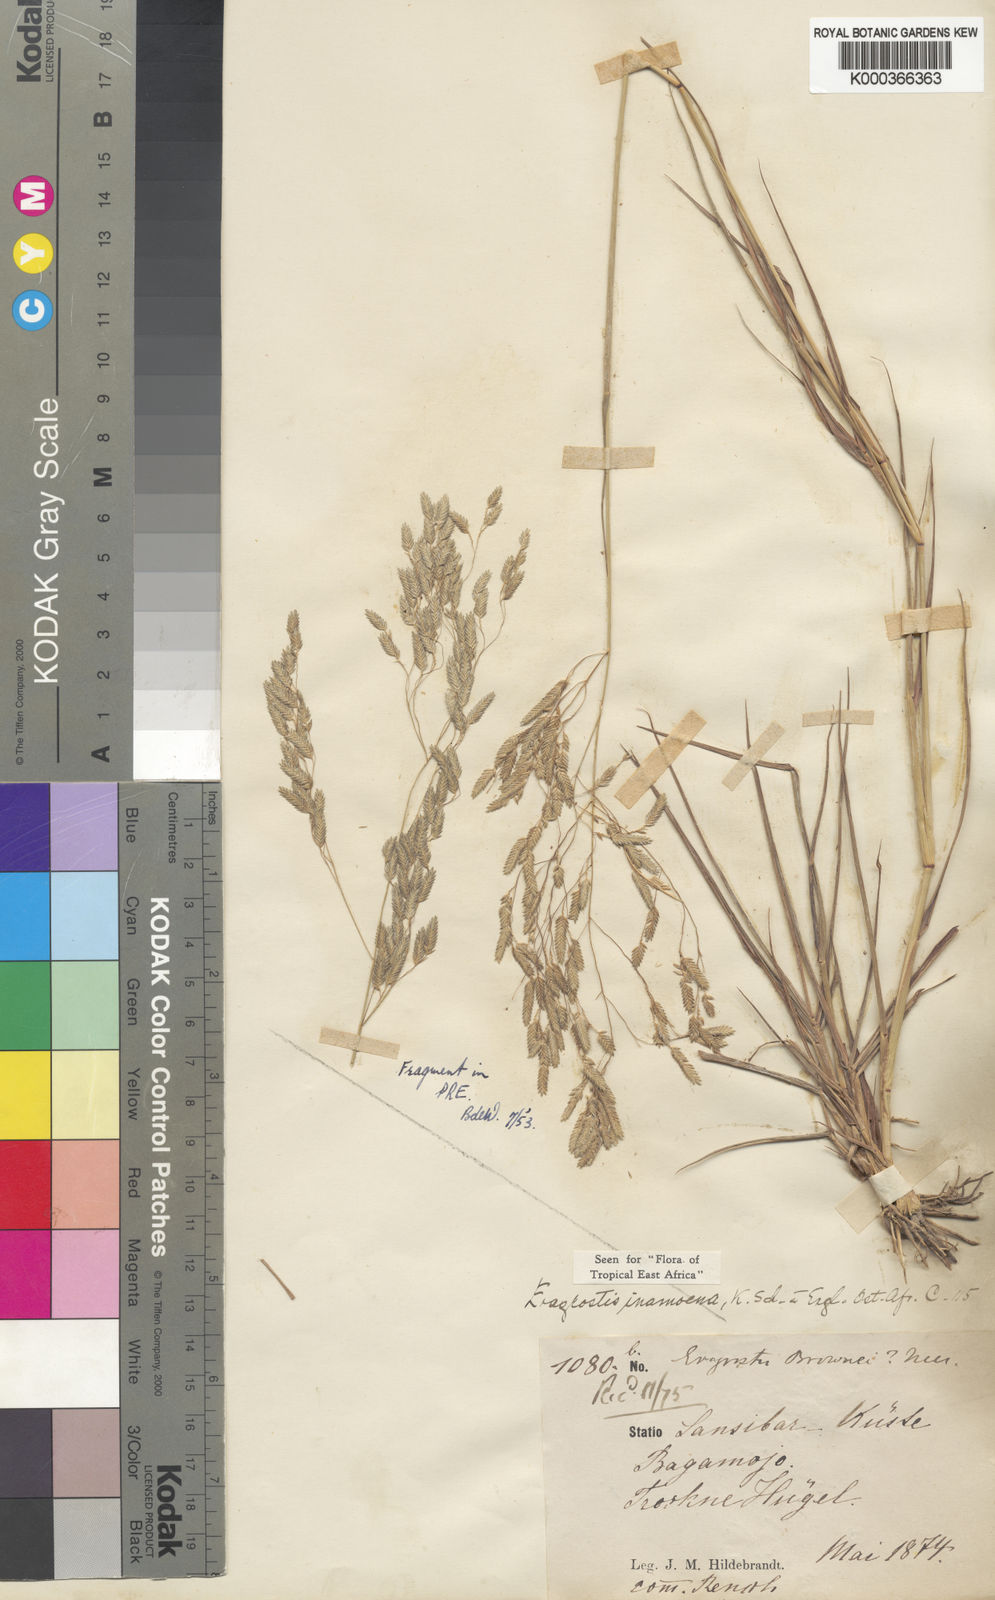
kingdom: Plantae
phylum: Tracheophyta
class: Liliopsida
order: Poales
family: Poaceae
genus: Eragrostis
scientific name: Eragrostis inamoena
